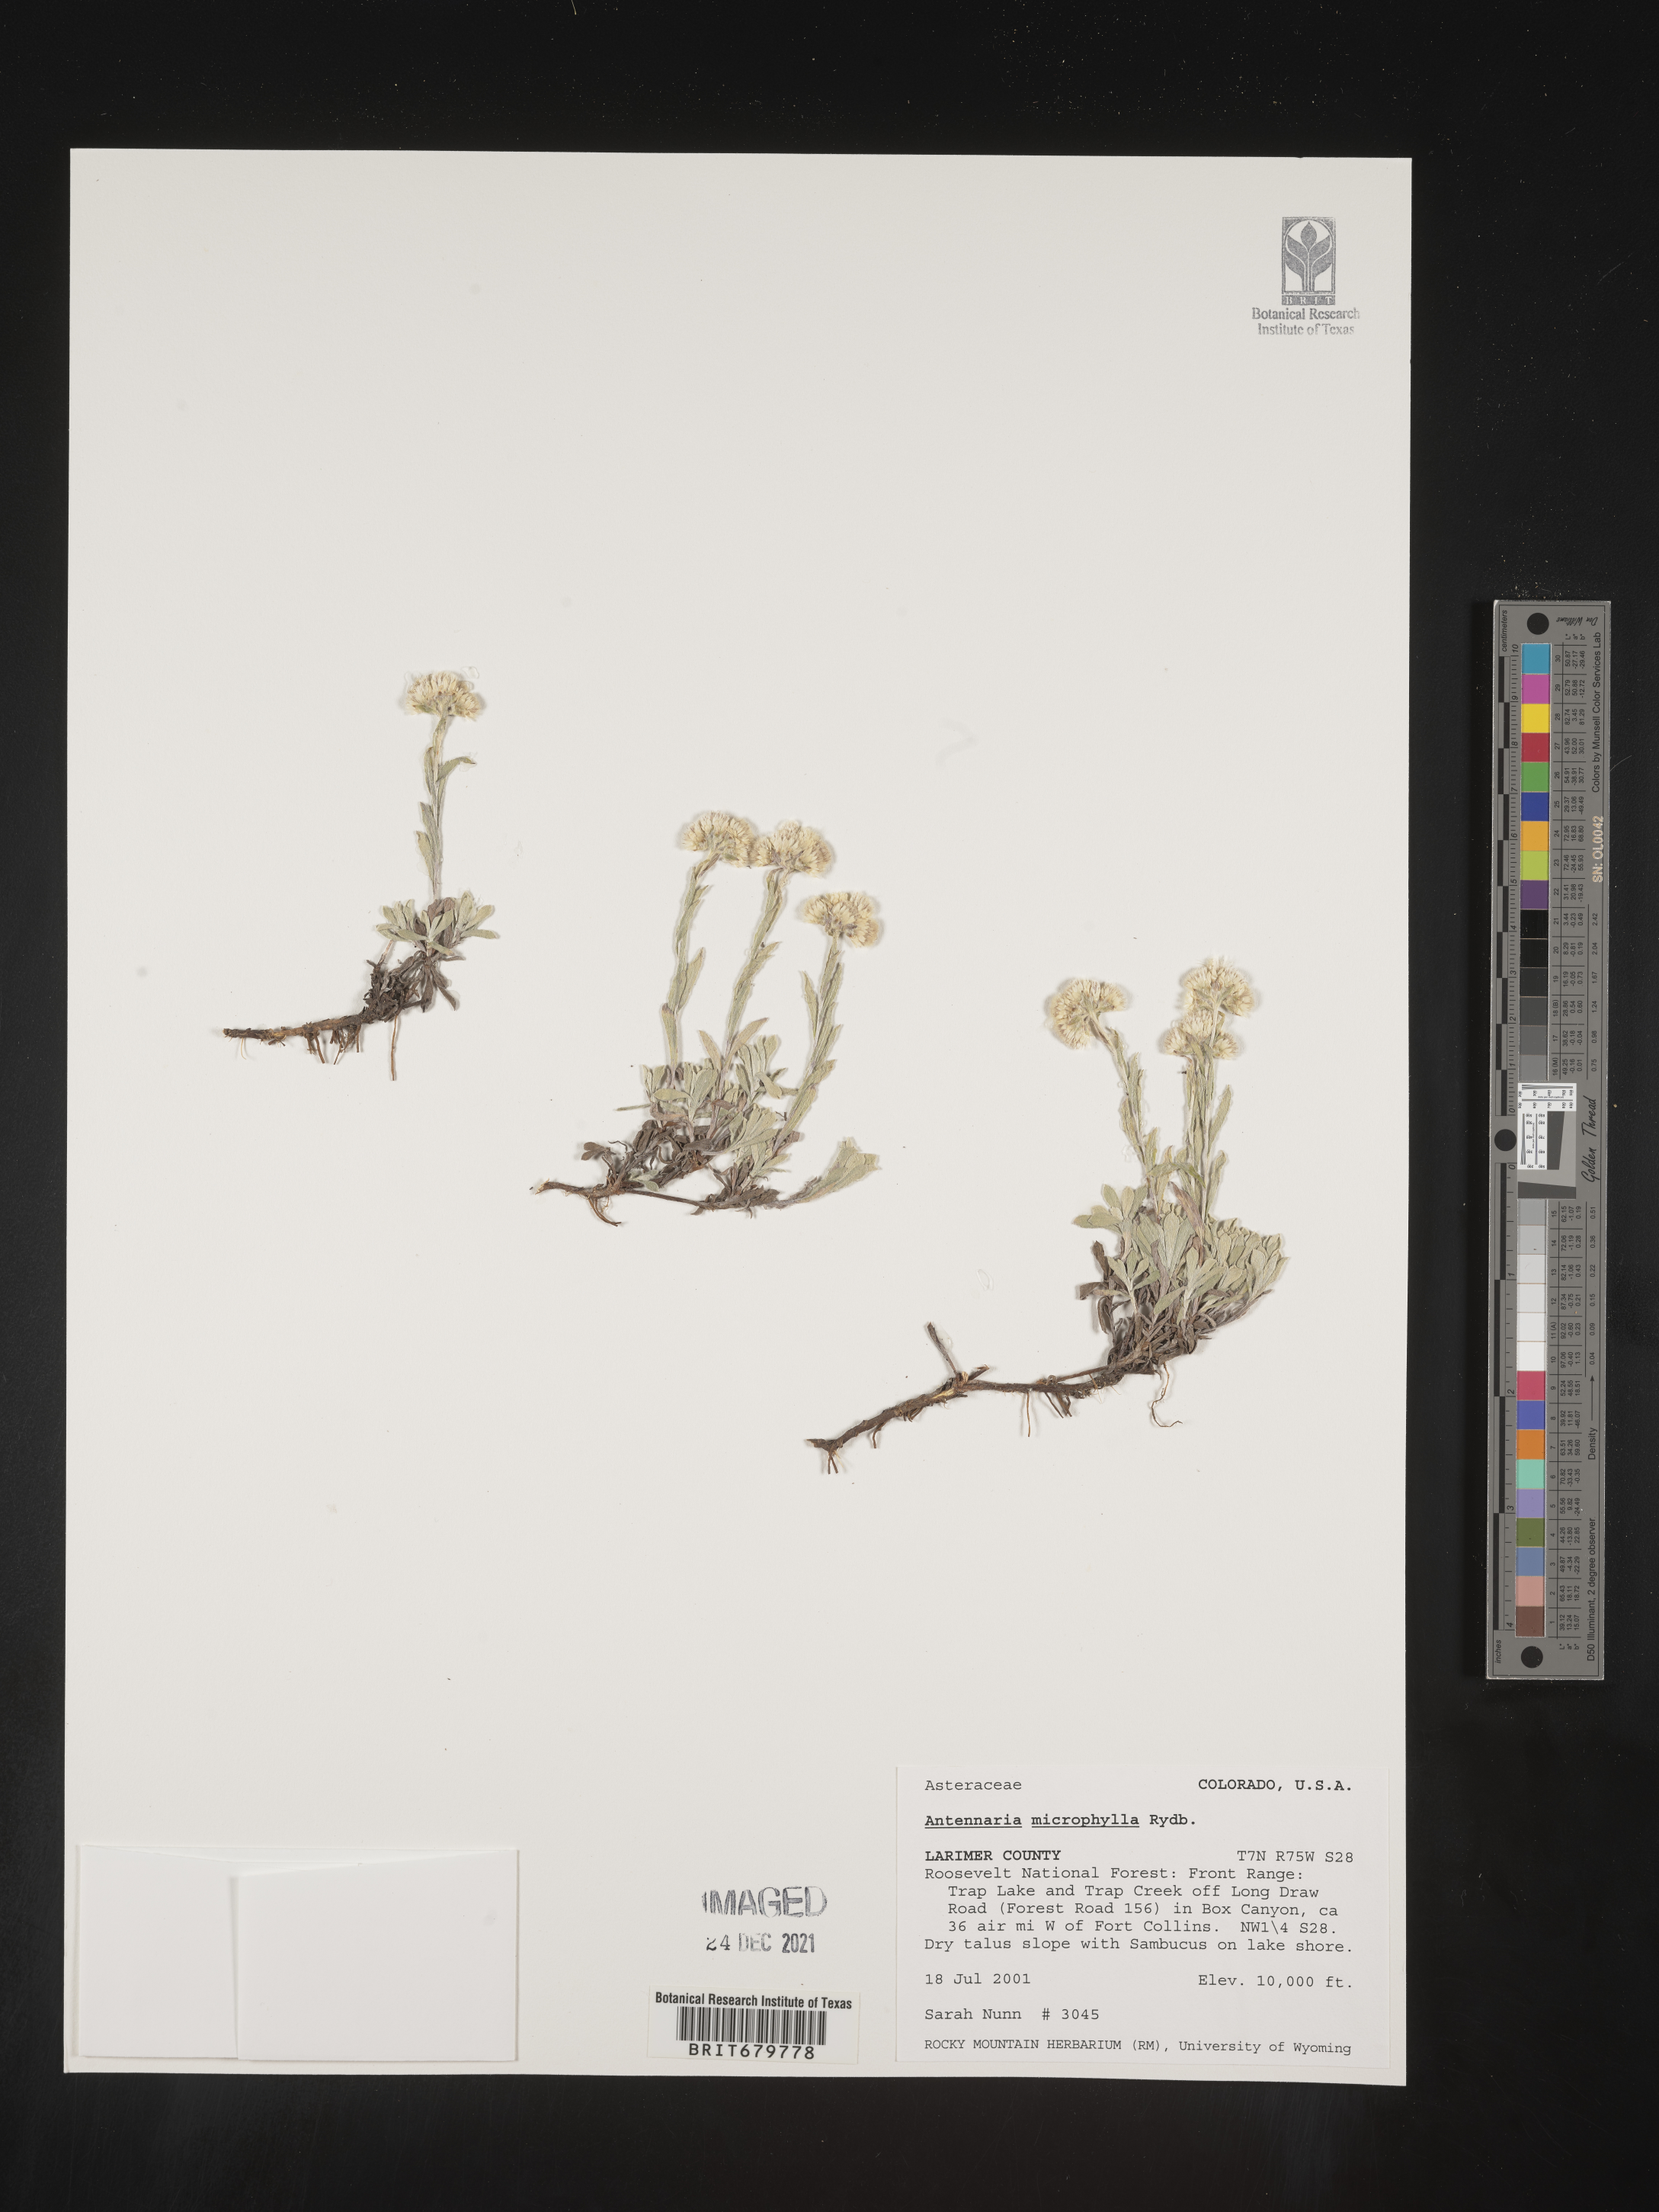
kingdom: Plantae
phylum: Tracheophyta
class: Magnoliopsida
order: Asterales
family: Asteraceae
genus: Antennaria
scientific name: Antennaria microphylla
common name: Littleleaf pussytoes
